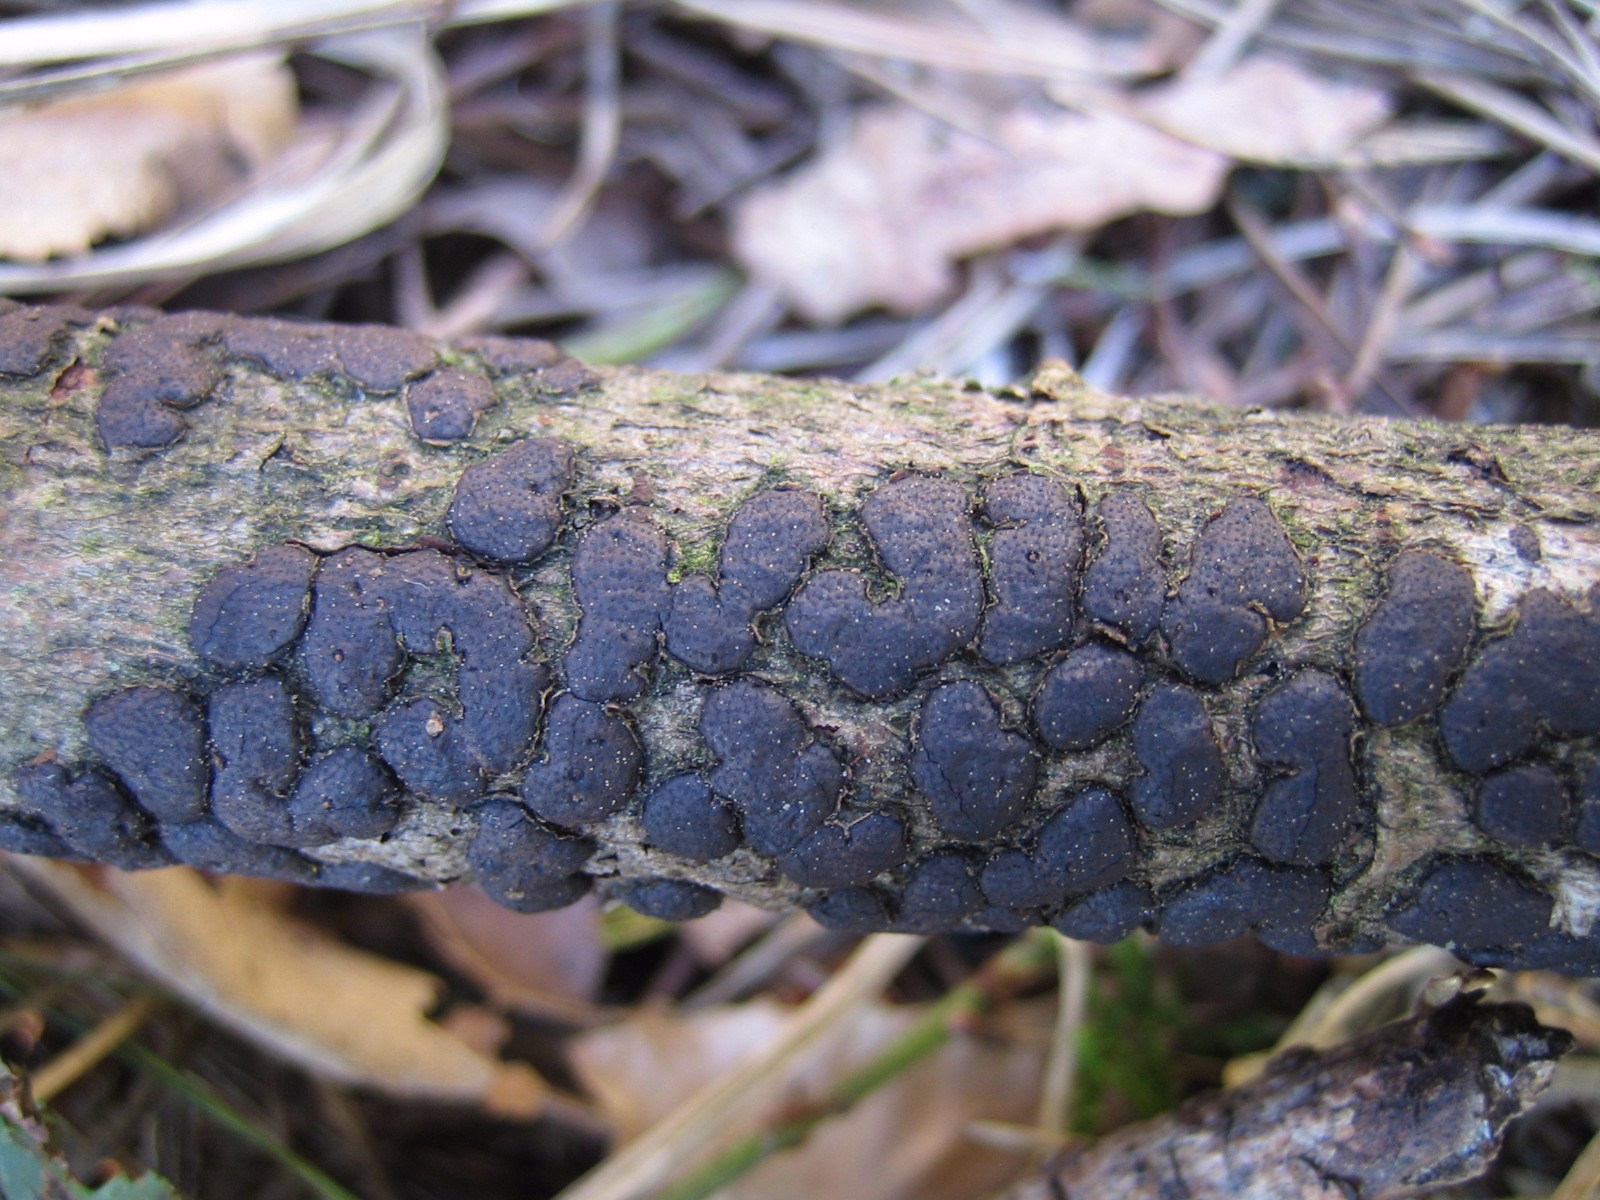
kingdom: Fungi
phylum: Ascomycota
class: Sordariomycetes
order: Xylariales
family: Diatrypaceae
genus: Diatrype
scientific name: Diatrype bullata
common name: pile-kulskorpe
